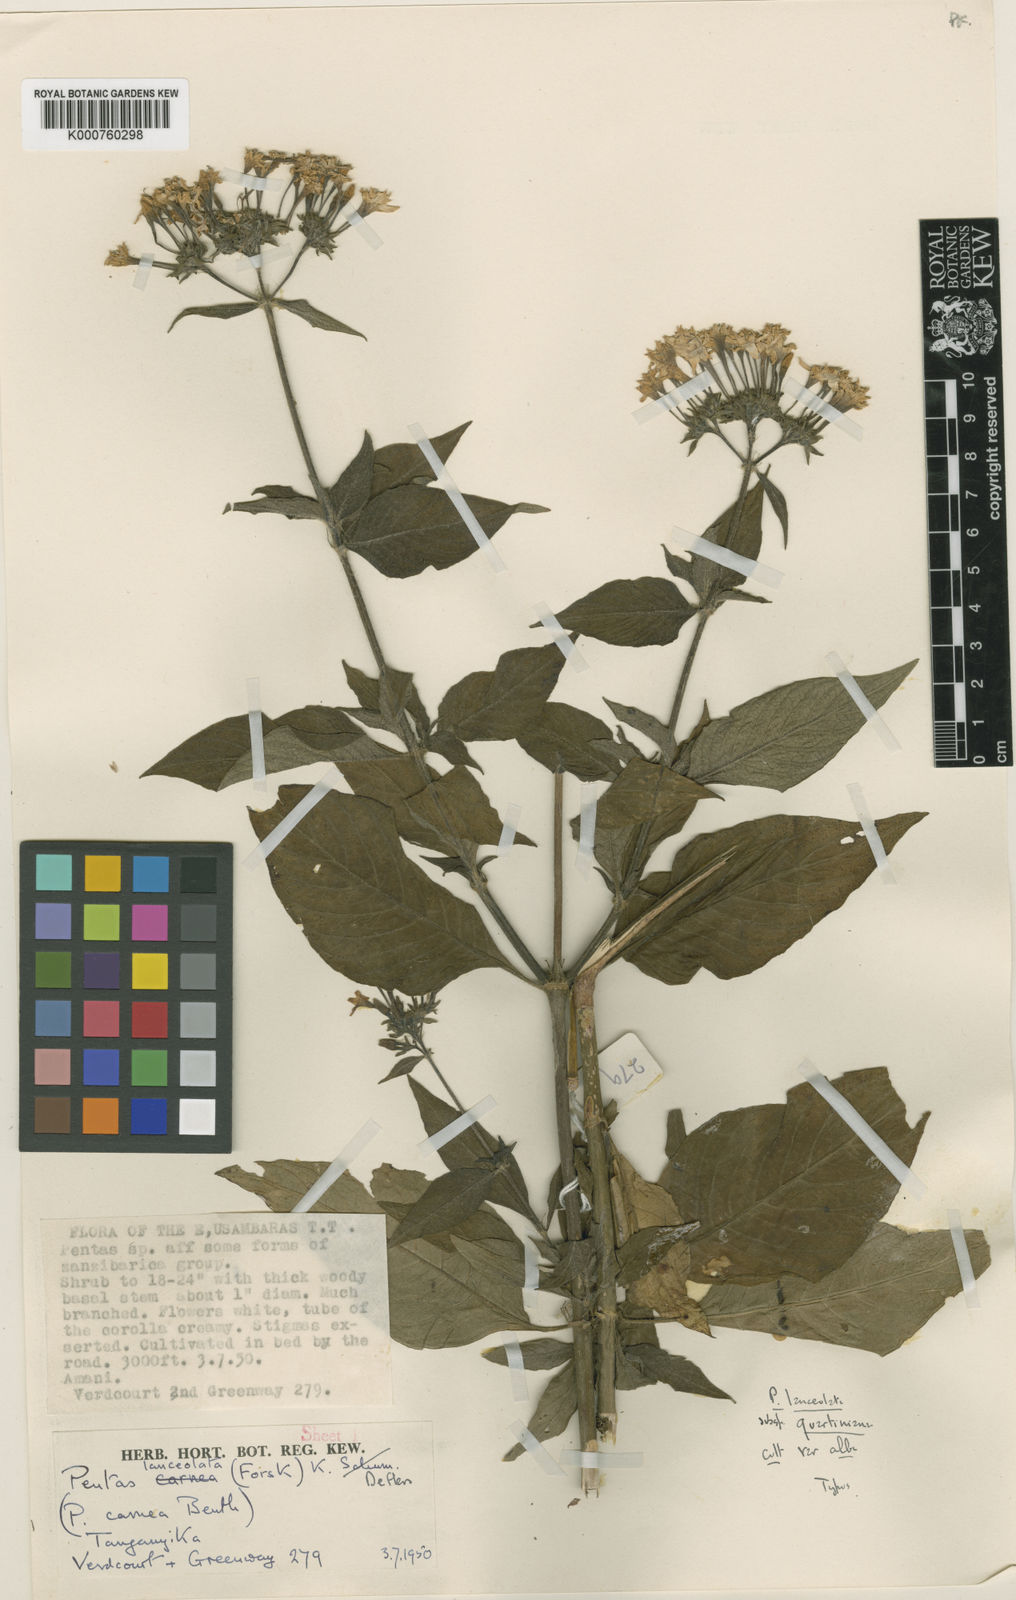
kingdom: Plantae
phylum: Tracheophyta
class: Magnoliopsida
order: Gentianales
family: Rubiaceae
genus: Pentas
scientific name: Pentas lanceolata
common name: Egyptian starcluster
